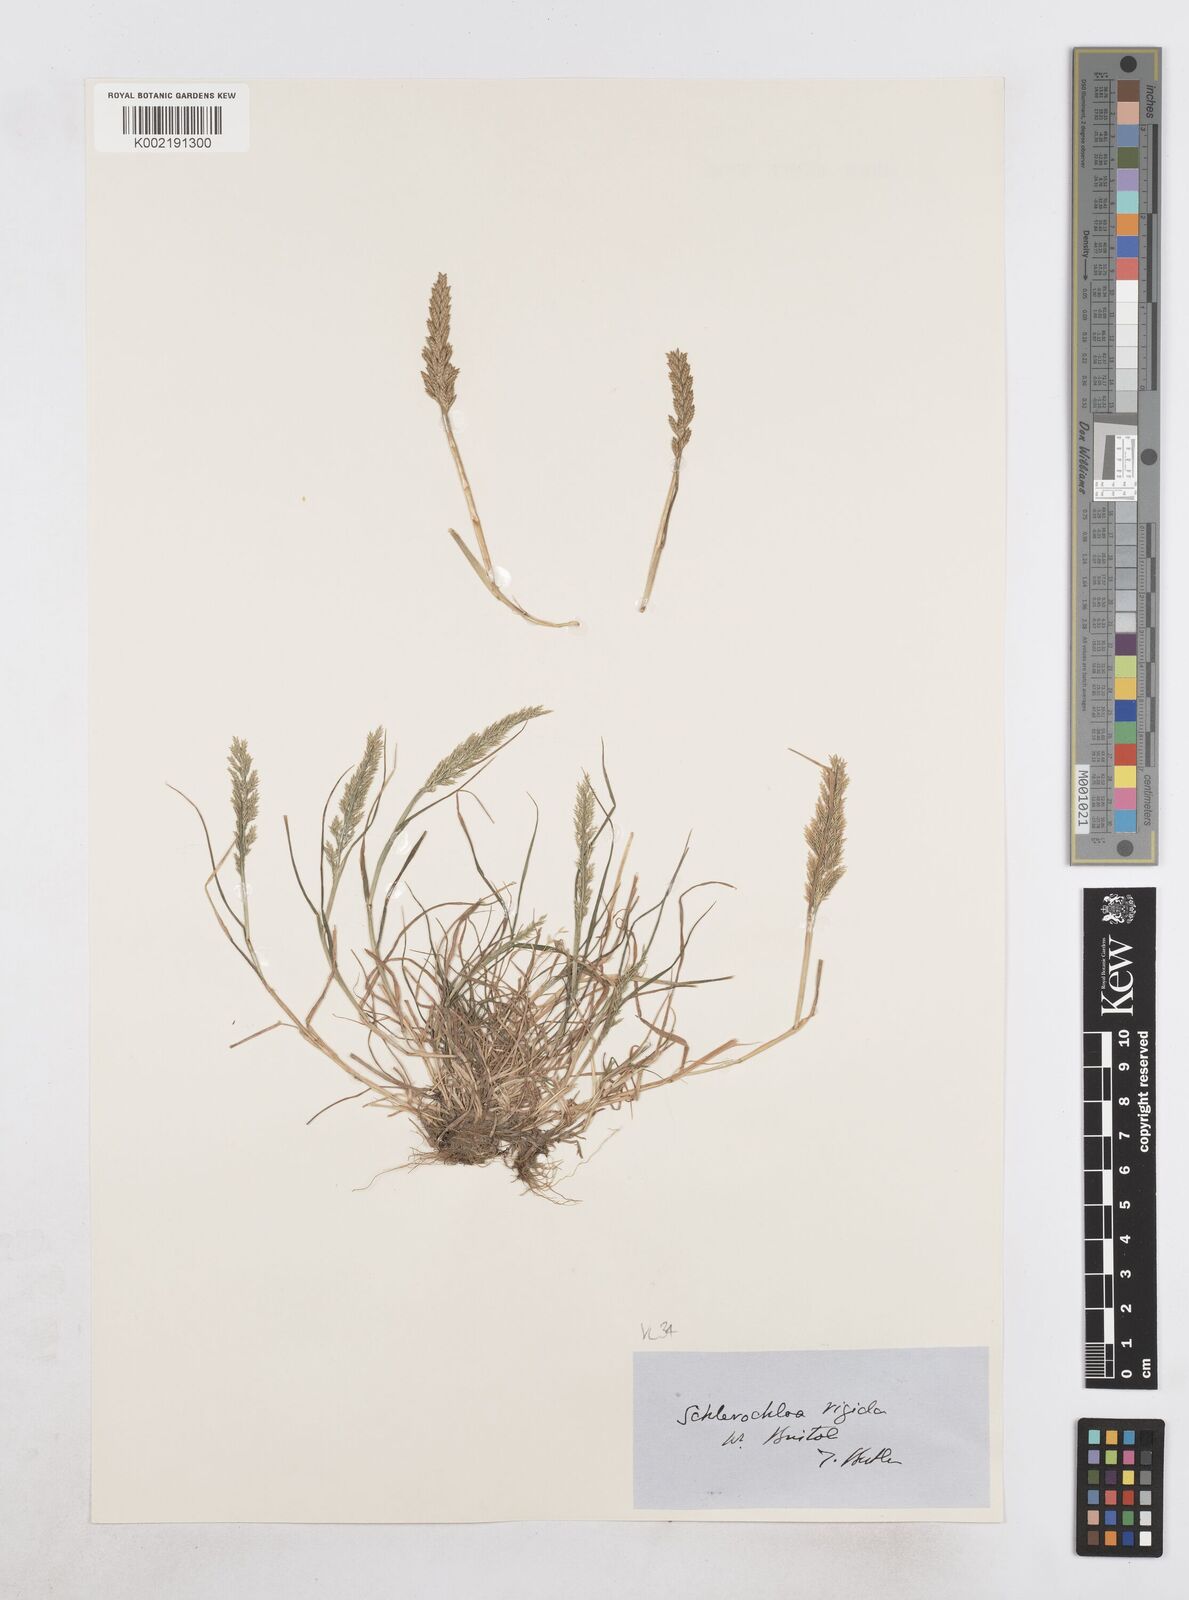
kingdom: Plantae
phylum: Tracheophyta
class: Liliopsida
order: Poales
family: Poaceae
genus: Catapodium
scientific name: Catapodium rigidum
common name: Fern-grass
